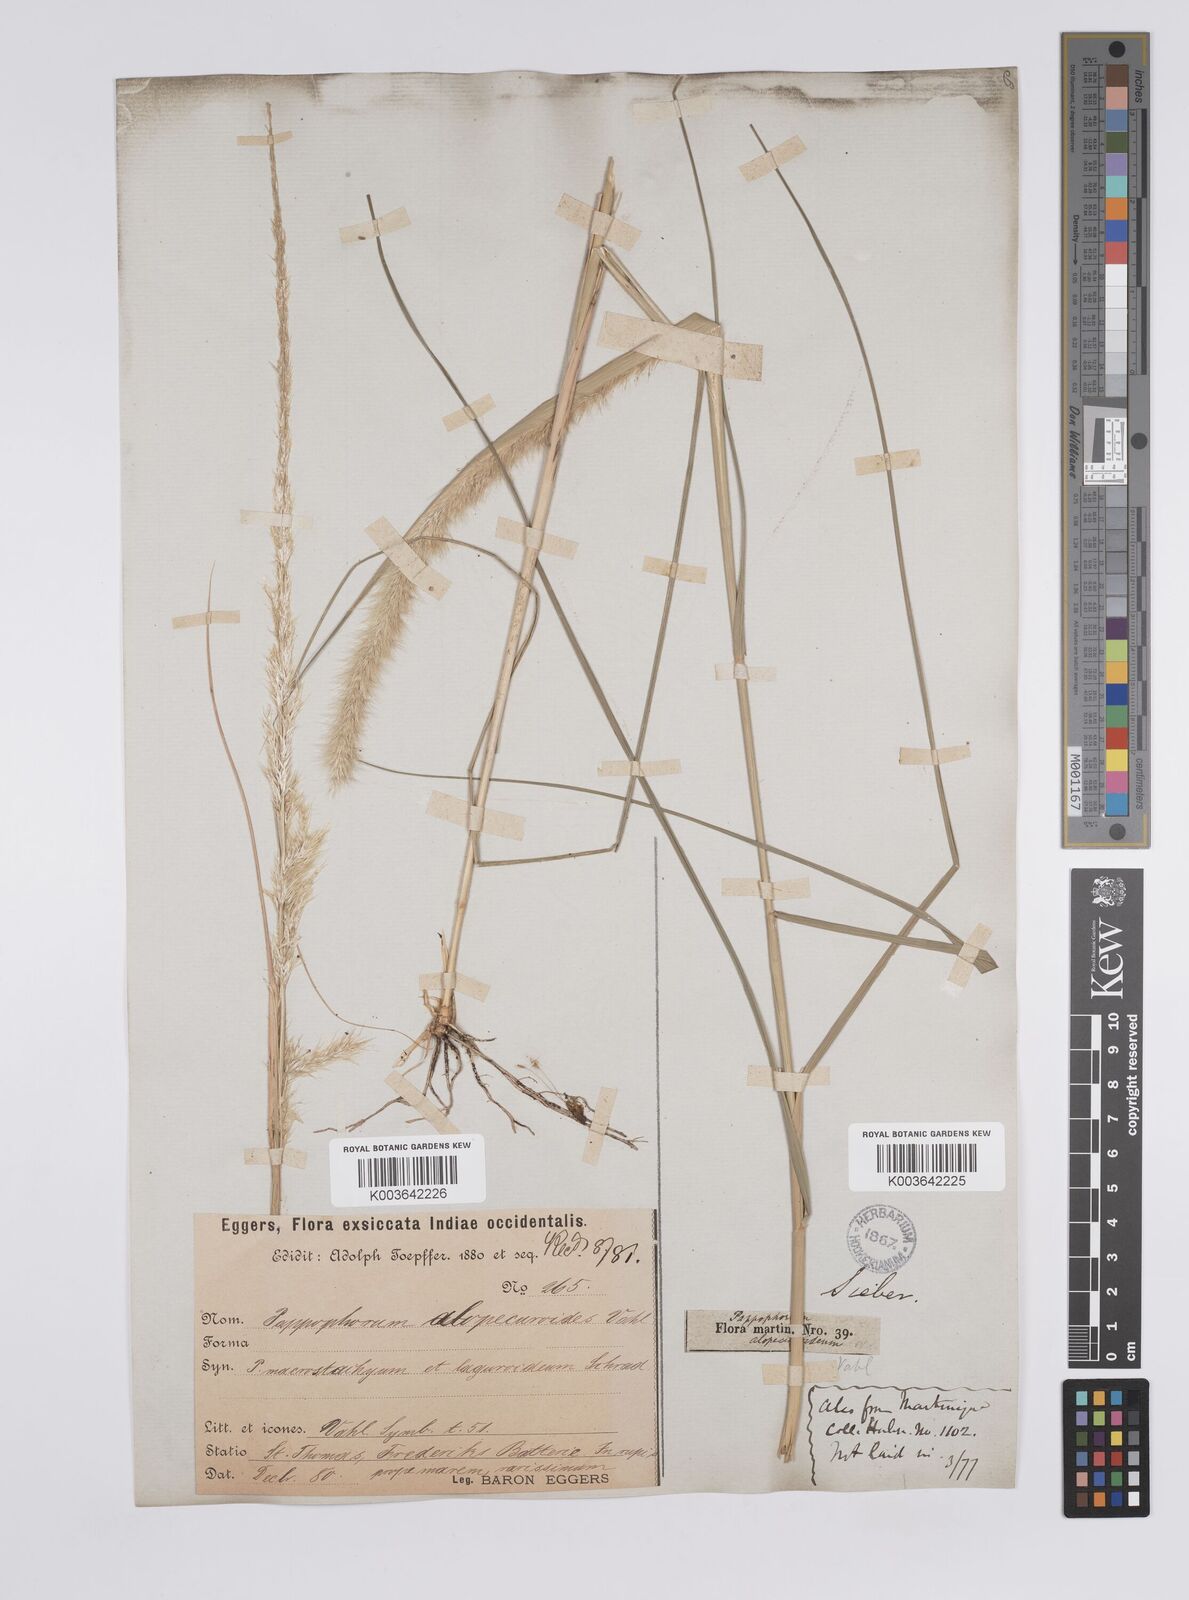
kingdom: Plantae
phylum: Tracheophyta
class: Liliopsida
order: Poales
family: Poaceae
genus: Pappophorum
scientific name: Pappophorum pappiferum
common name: Crabgrass
